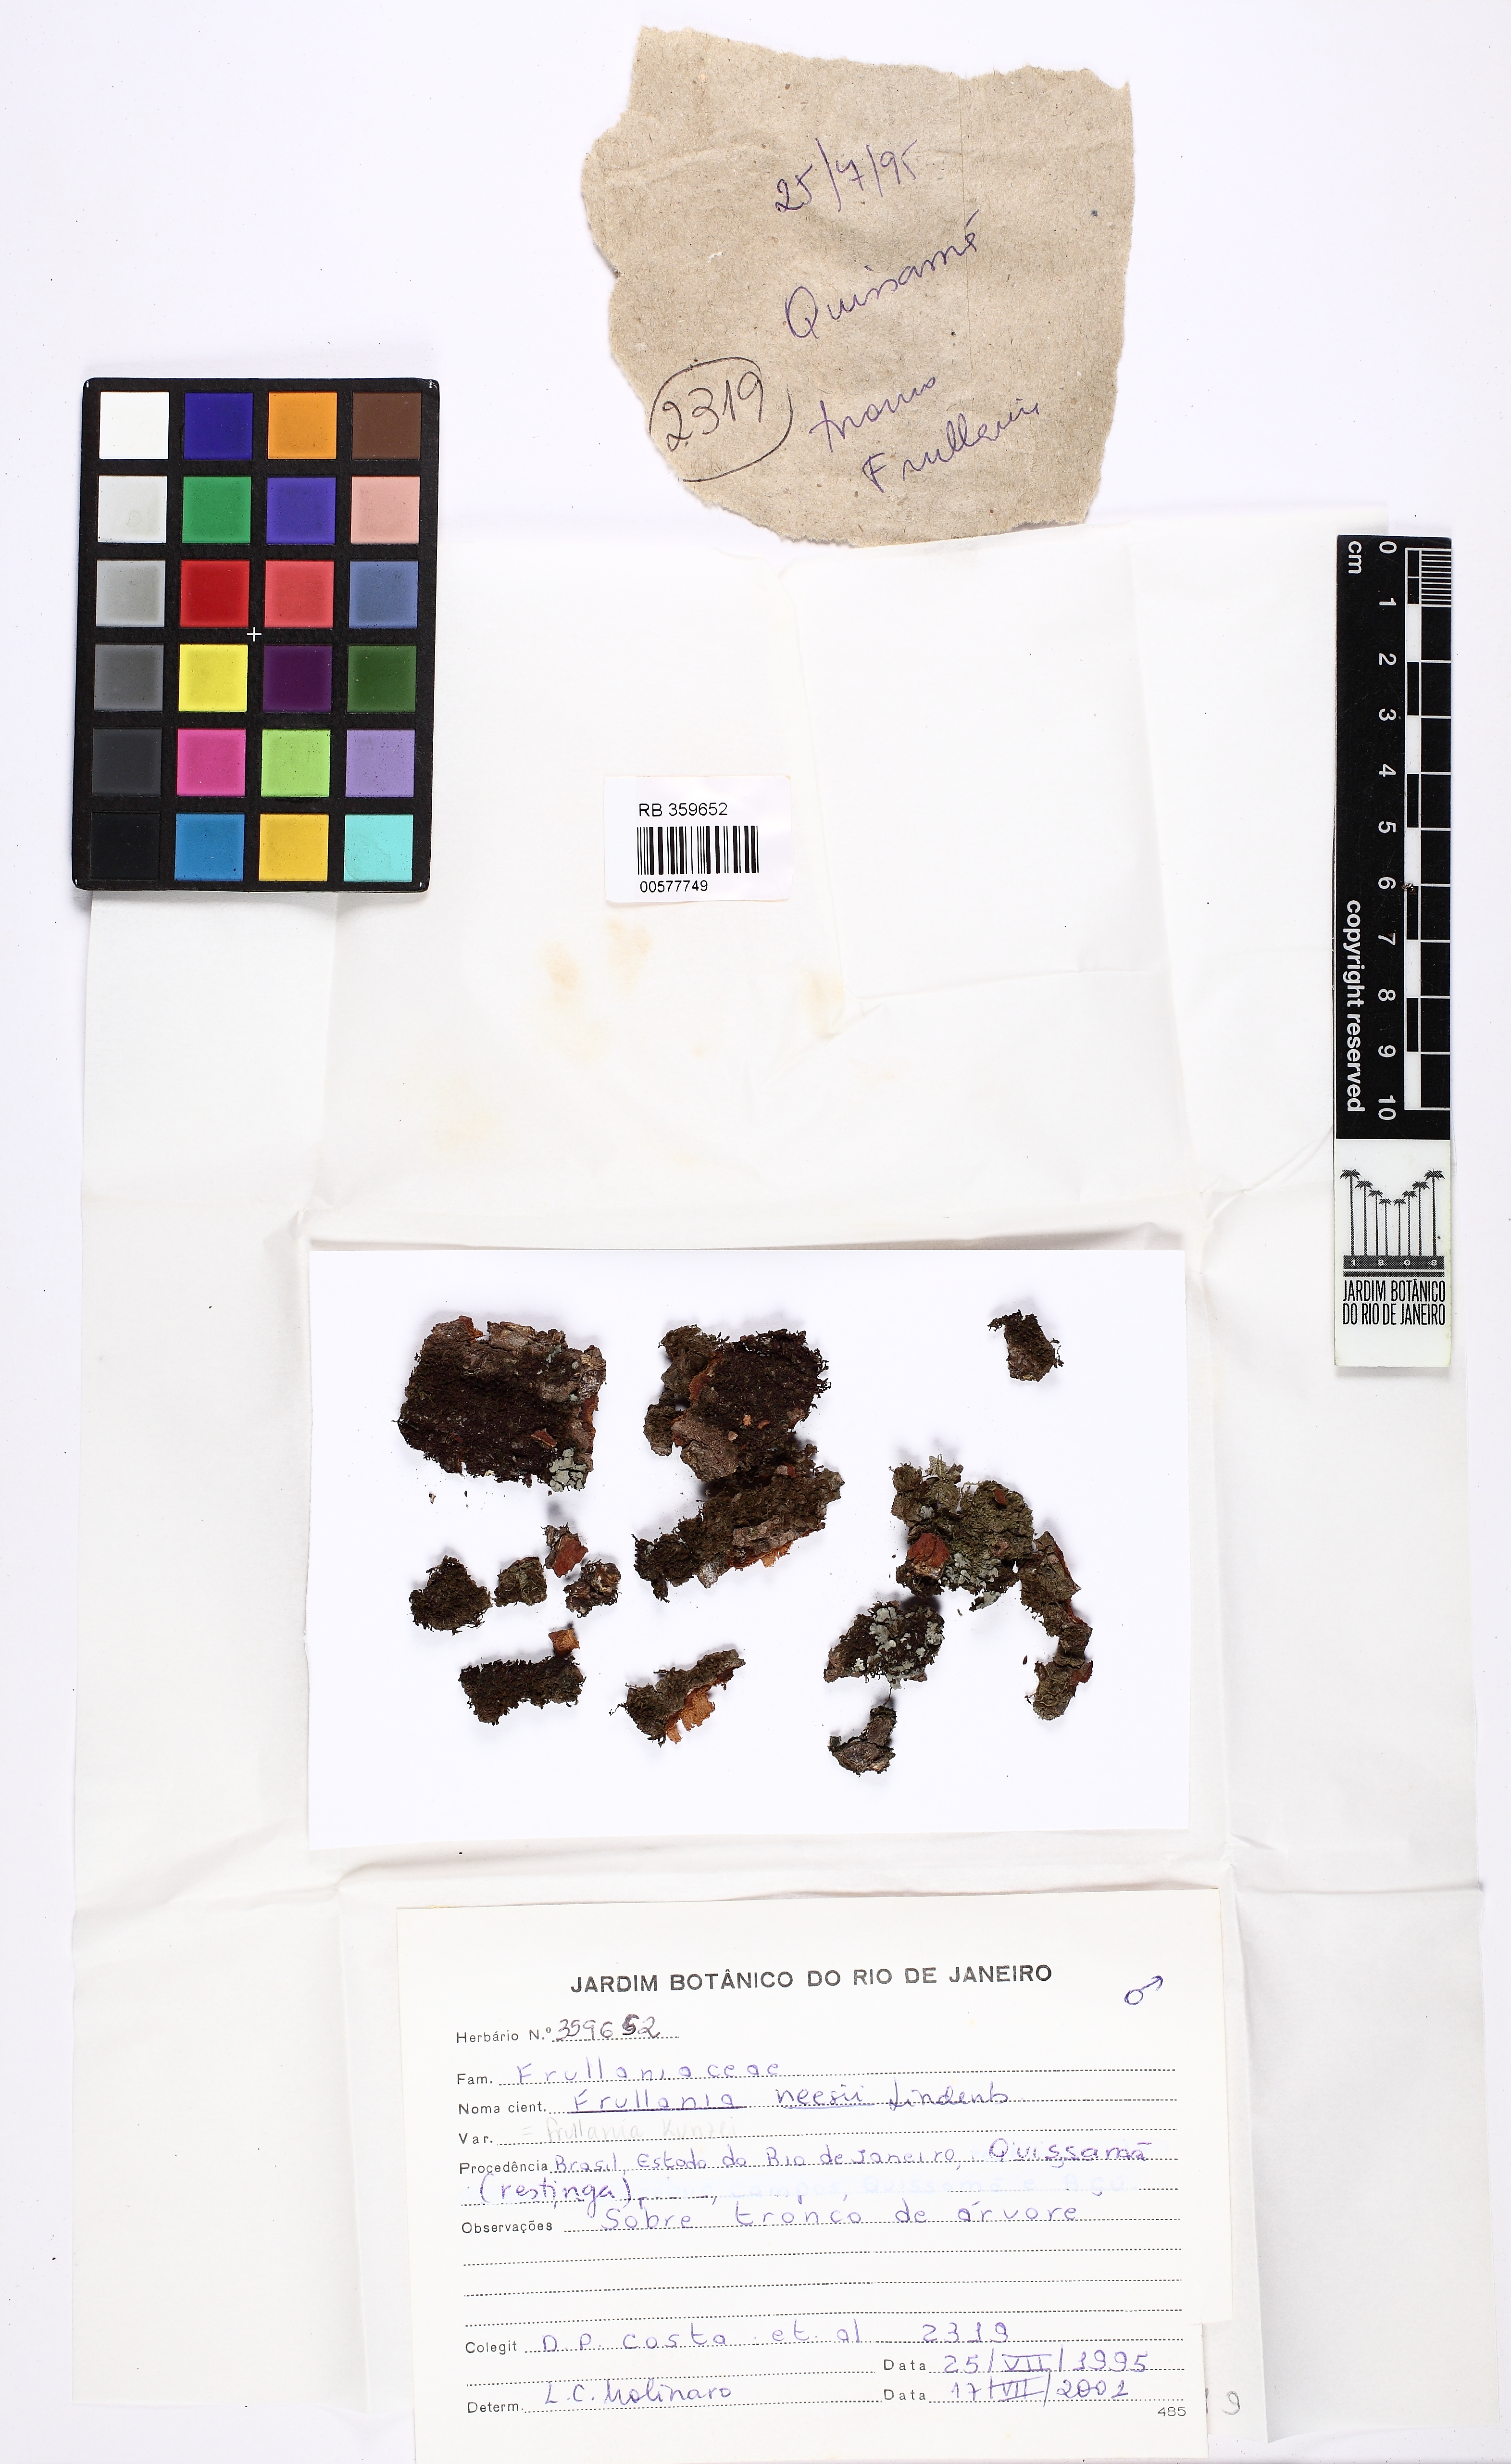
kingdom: Plantae
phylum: Marchantiophyta
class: Jungermanniopsida
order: Porellales
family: Frullaniaceae
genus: Frullania
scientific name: Frullania kunzei
